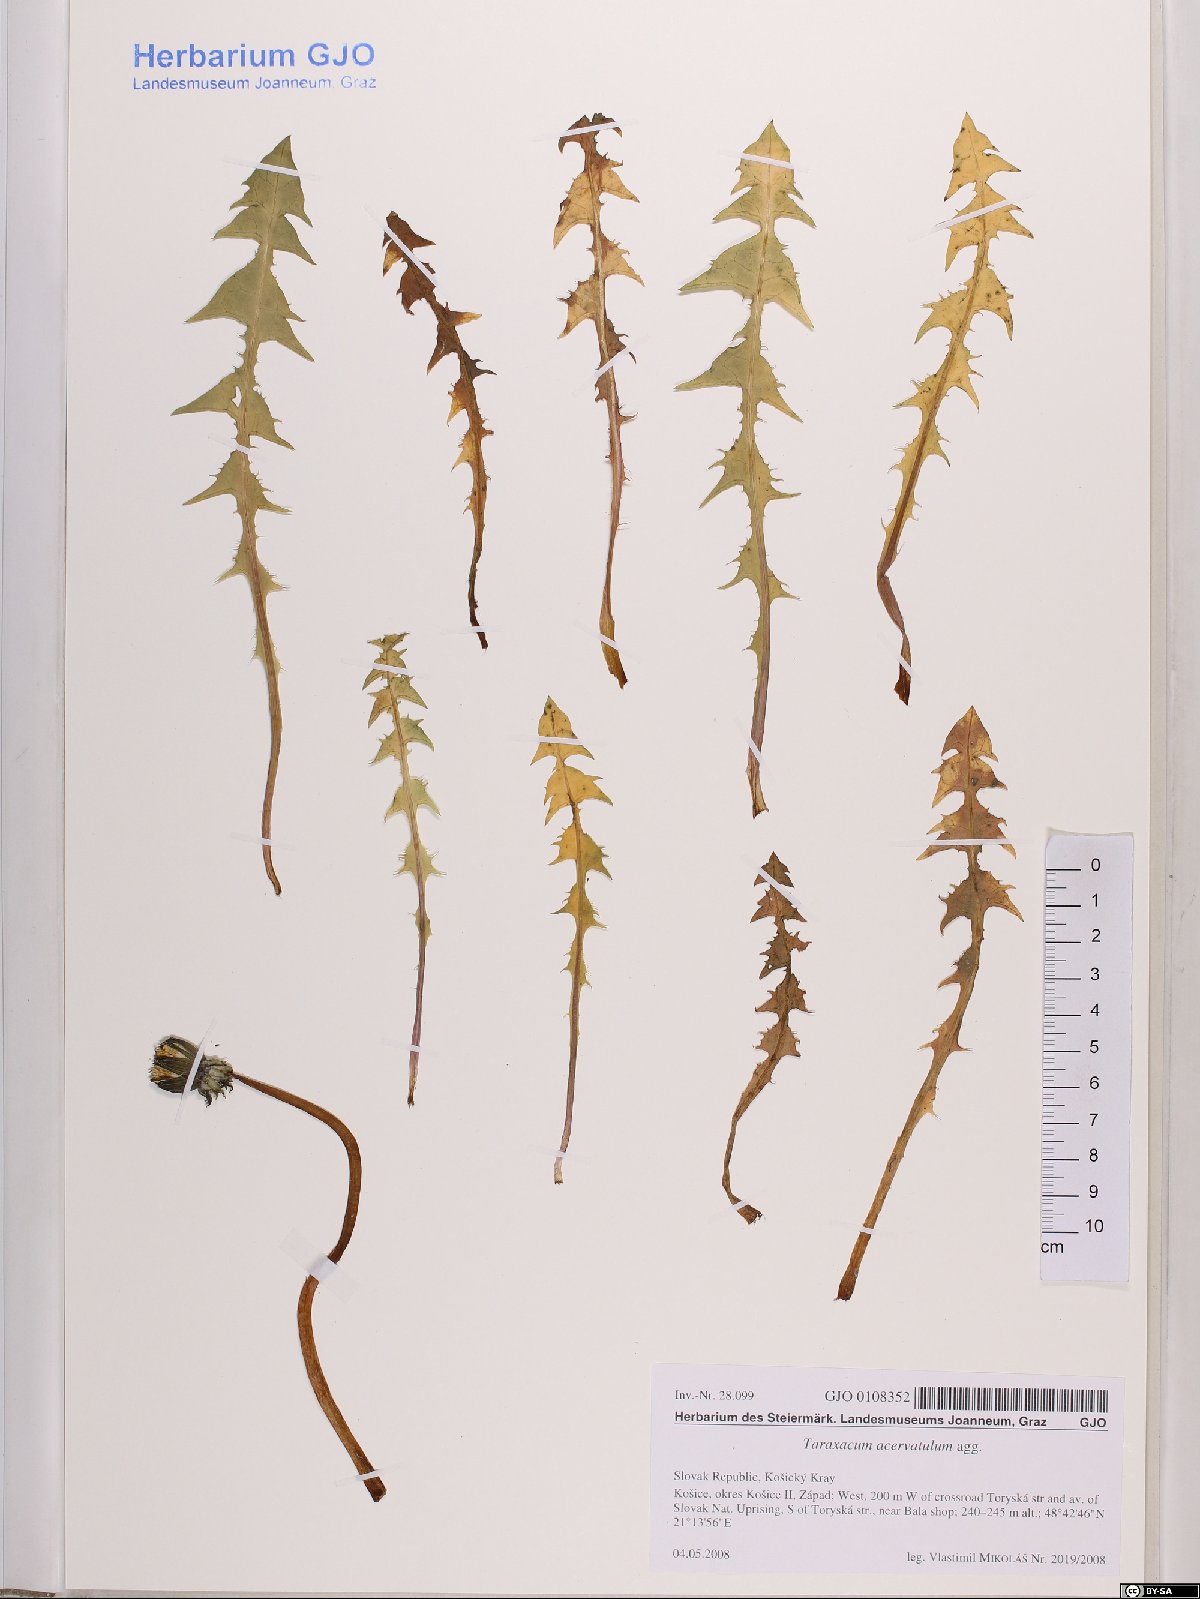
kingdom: Plantae
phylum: Tracheophyta
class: Magnoliopsida
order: Asterales
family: Asteraceae
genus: Taraxacum
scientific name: Taraxacum acervatulum
